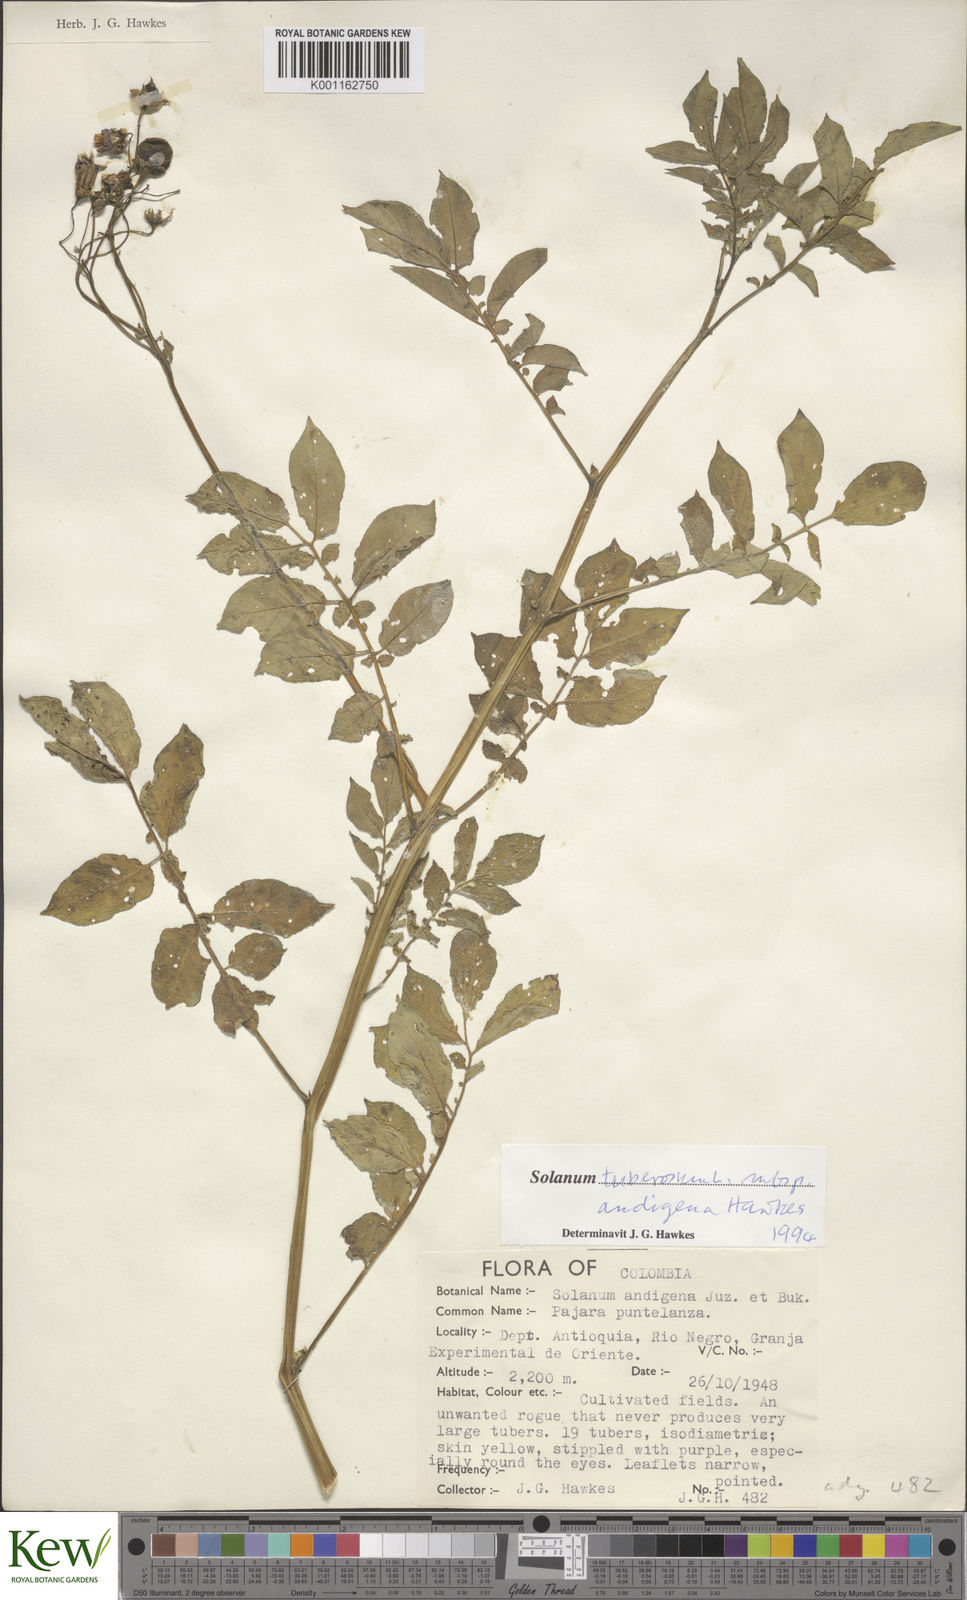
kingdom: Plantae
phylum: Tracheophyta
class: Magnoliopsida
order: Solanales
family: Solanaceae
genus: Solanum
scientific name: Solanum tuberosum
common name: Potato
